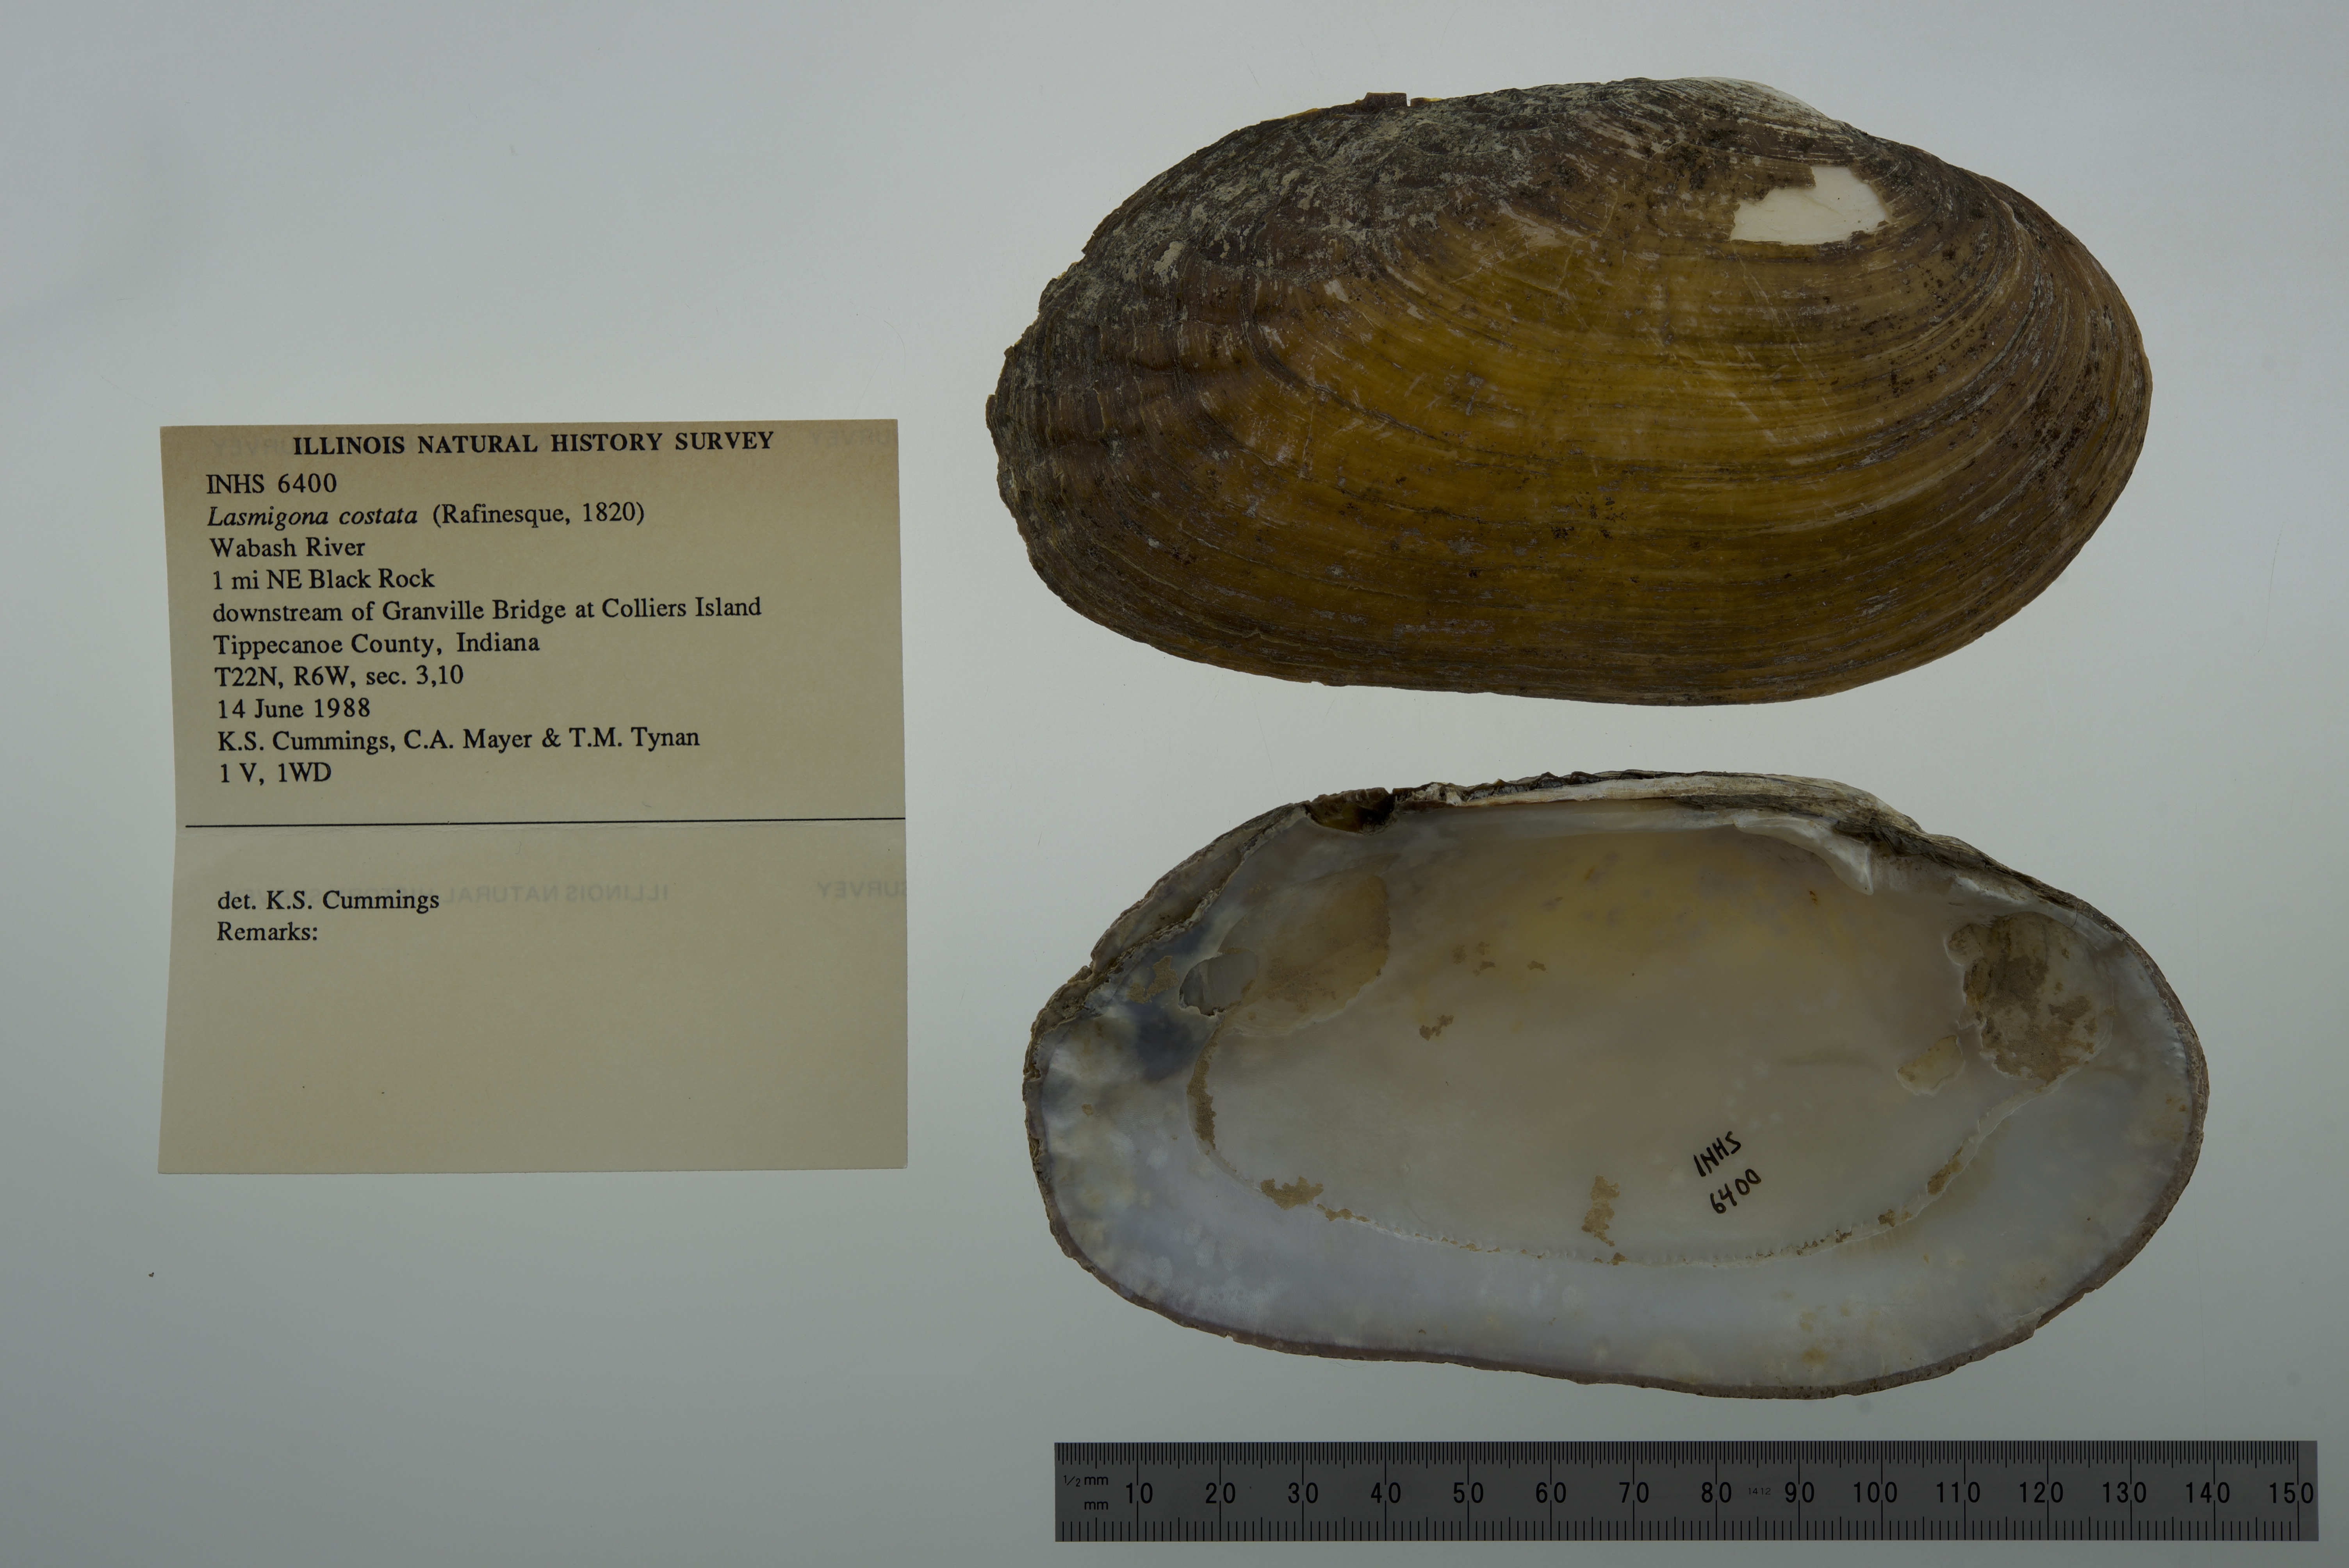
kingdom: Animalia
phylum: Mollusca
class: Bivalvia
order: Unionida
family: Unionidae
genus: Lasmigona
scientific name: Lasmigona costata
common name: Flutedshell
